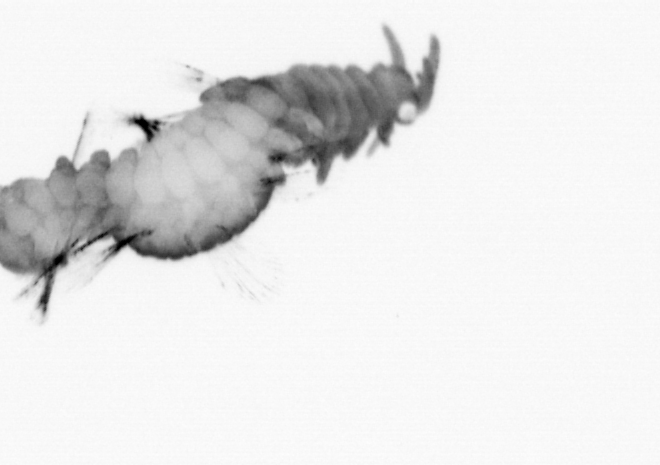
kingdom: Animalia
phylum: Annelida
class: Polychaeta
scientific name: Polychaeta
